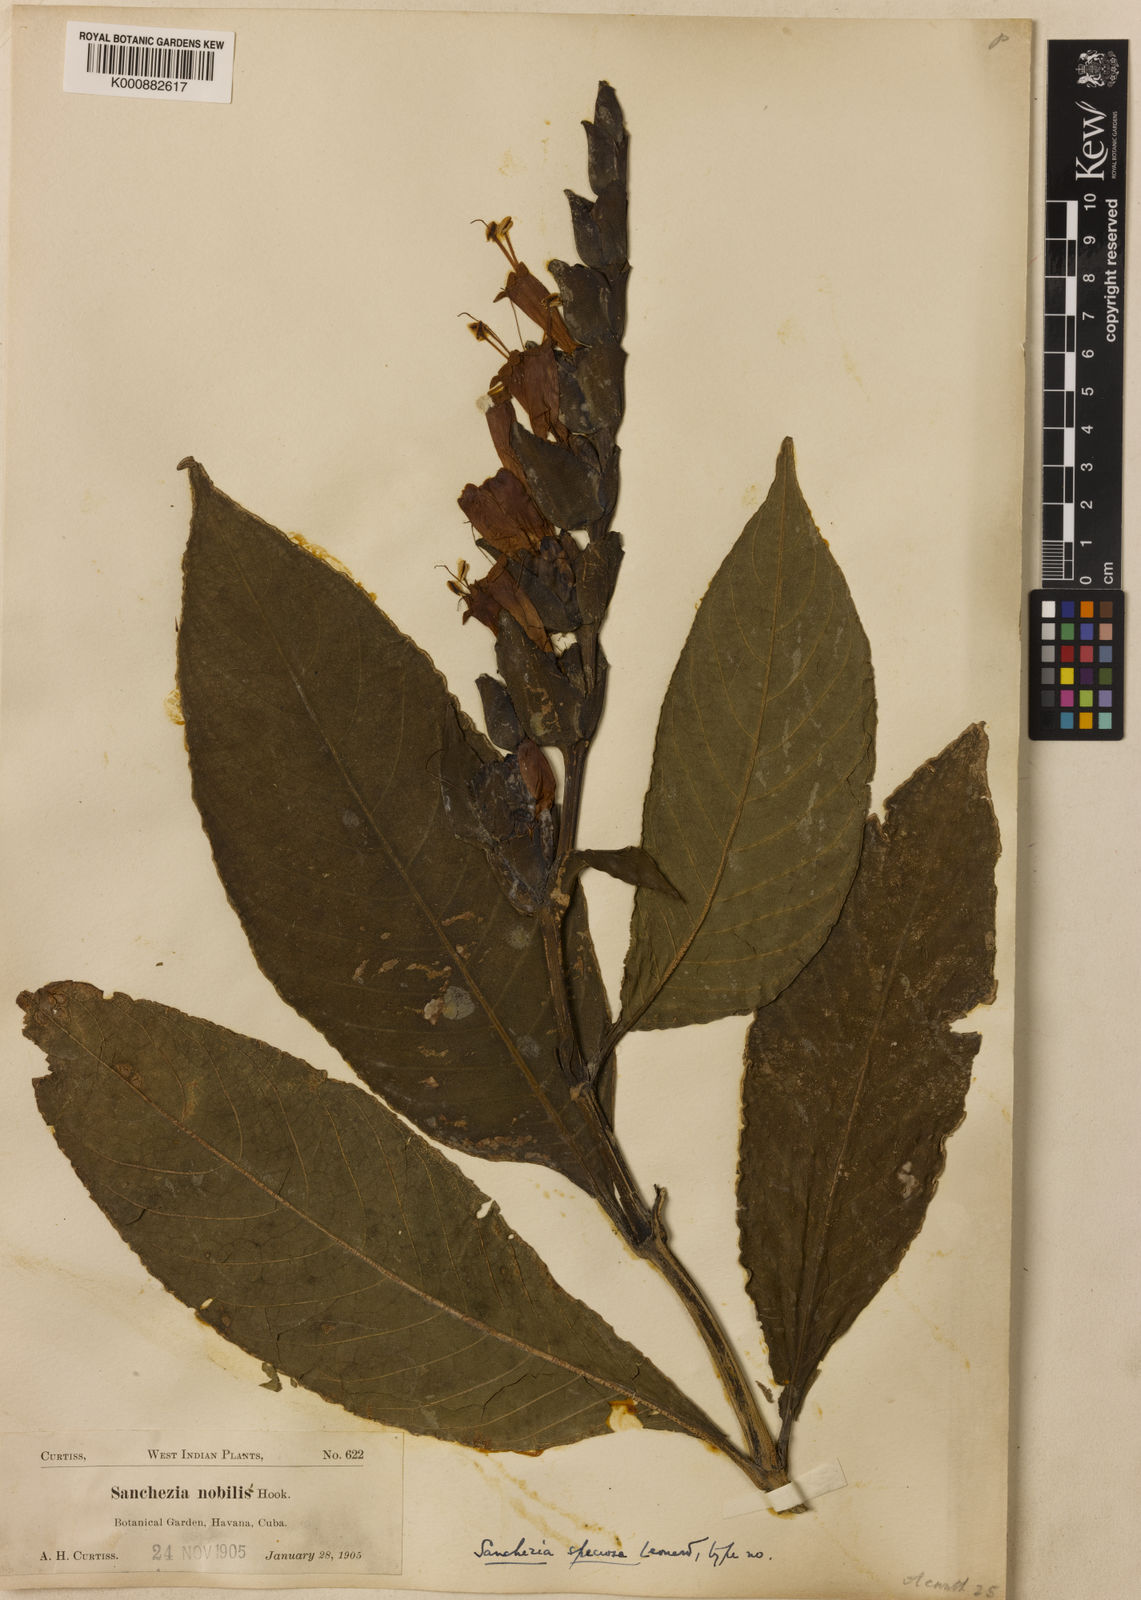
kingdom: Plantae
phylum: Tracheophyta
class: Magnoliopsida
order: Lamiales
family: Acanthaceae
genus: Sanchezia
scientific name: Sanchezia speciosa
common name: Shrubby whitevein
